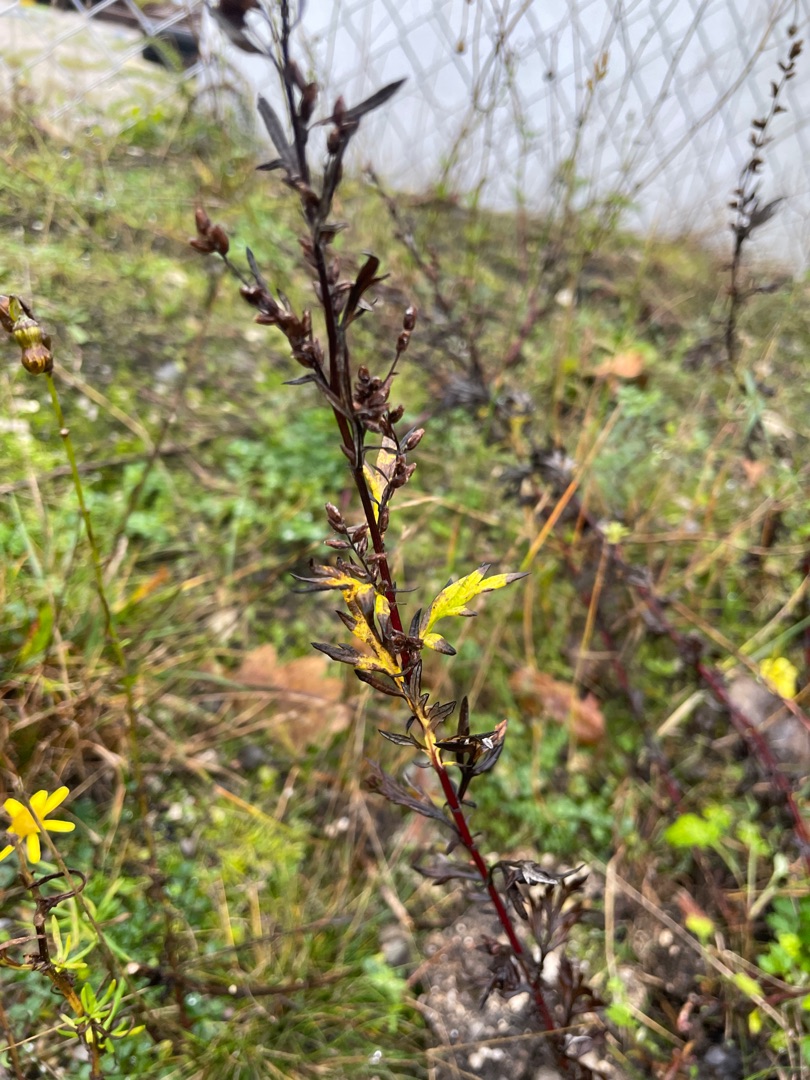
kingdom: Plantae
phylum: Tracheophyta
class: Magnoliopsida
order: Asterales
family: Asteraceae
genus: Artemisia
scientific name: Artemisia vulgaris
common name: Grå-bynke
